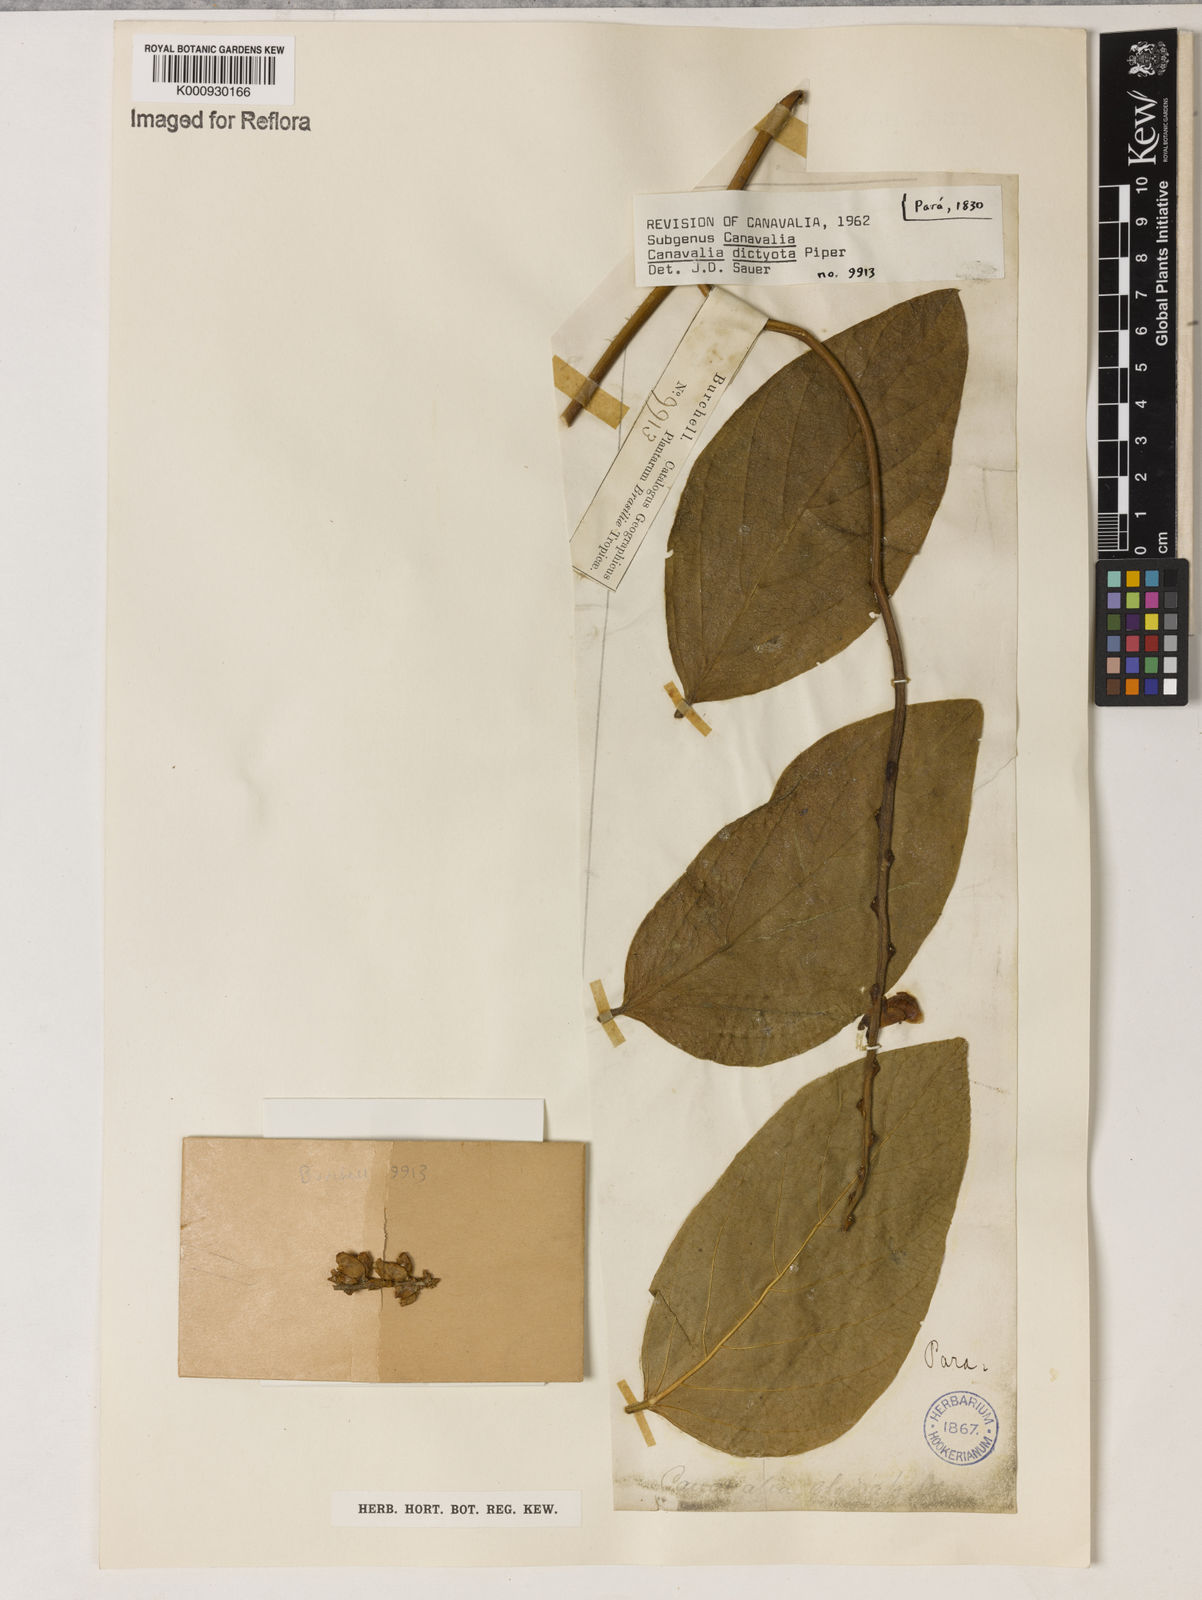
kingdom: Plantae
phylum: Tracheophyta
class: Magnoliopsida
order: Fabales
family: Fabaceae
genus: Canavalia
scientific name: Canavalia brasiliensis
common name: Barbicou-bean
